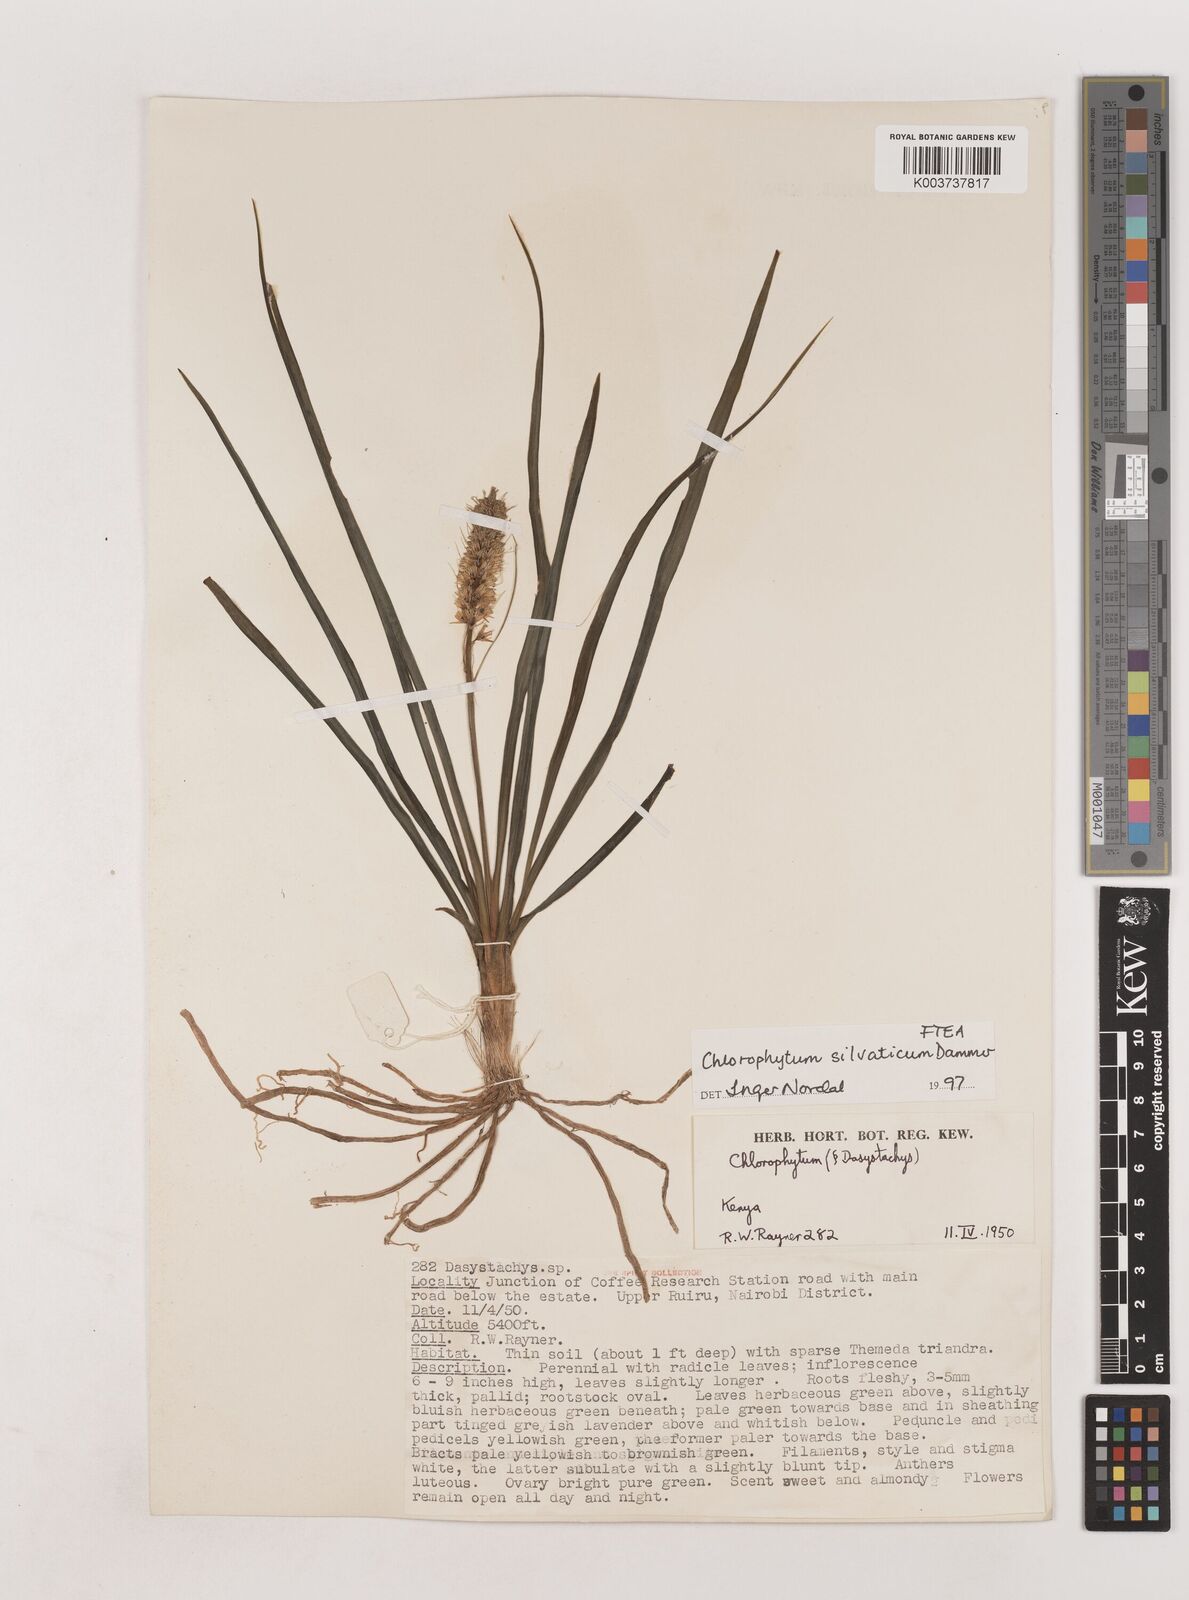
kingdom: Plantae
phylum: Tracheophyta
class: Liliopsida
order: Asparagales
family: Asparagaceae
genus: Chlorophytum
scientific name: Chlorophytum africanum
